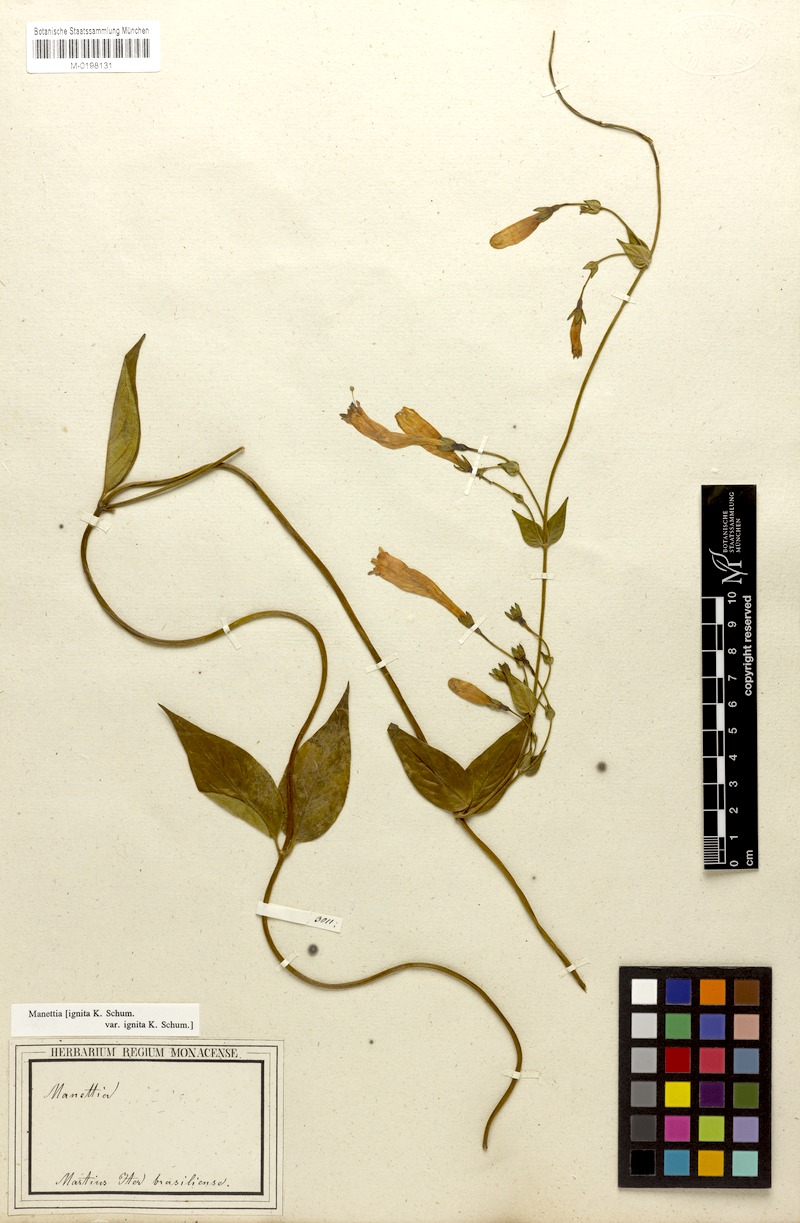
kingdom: Plantae
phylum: Tracheophyta
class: Magnoliopsida
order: Gentianales
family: Rubiaceae
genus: Manettia
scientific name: Manettia cordifolia
